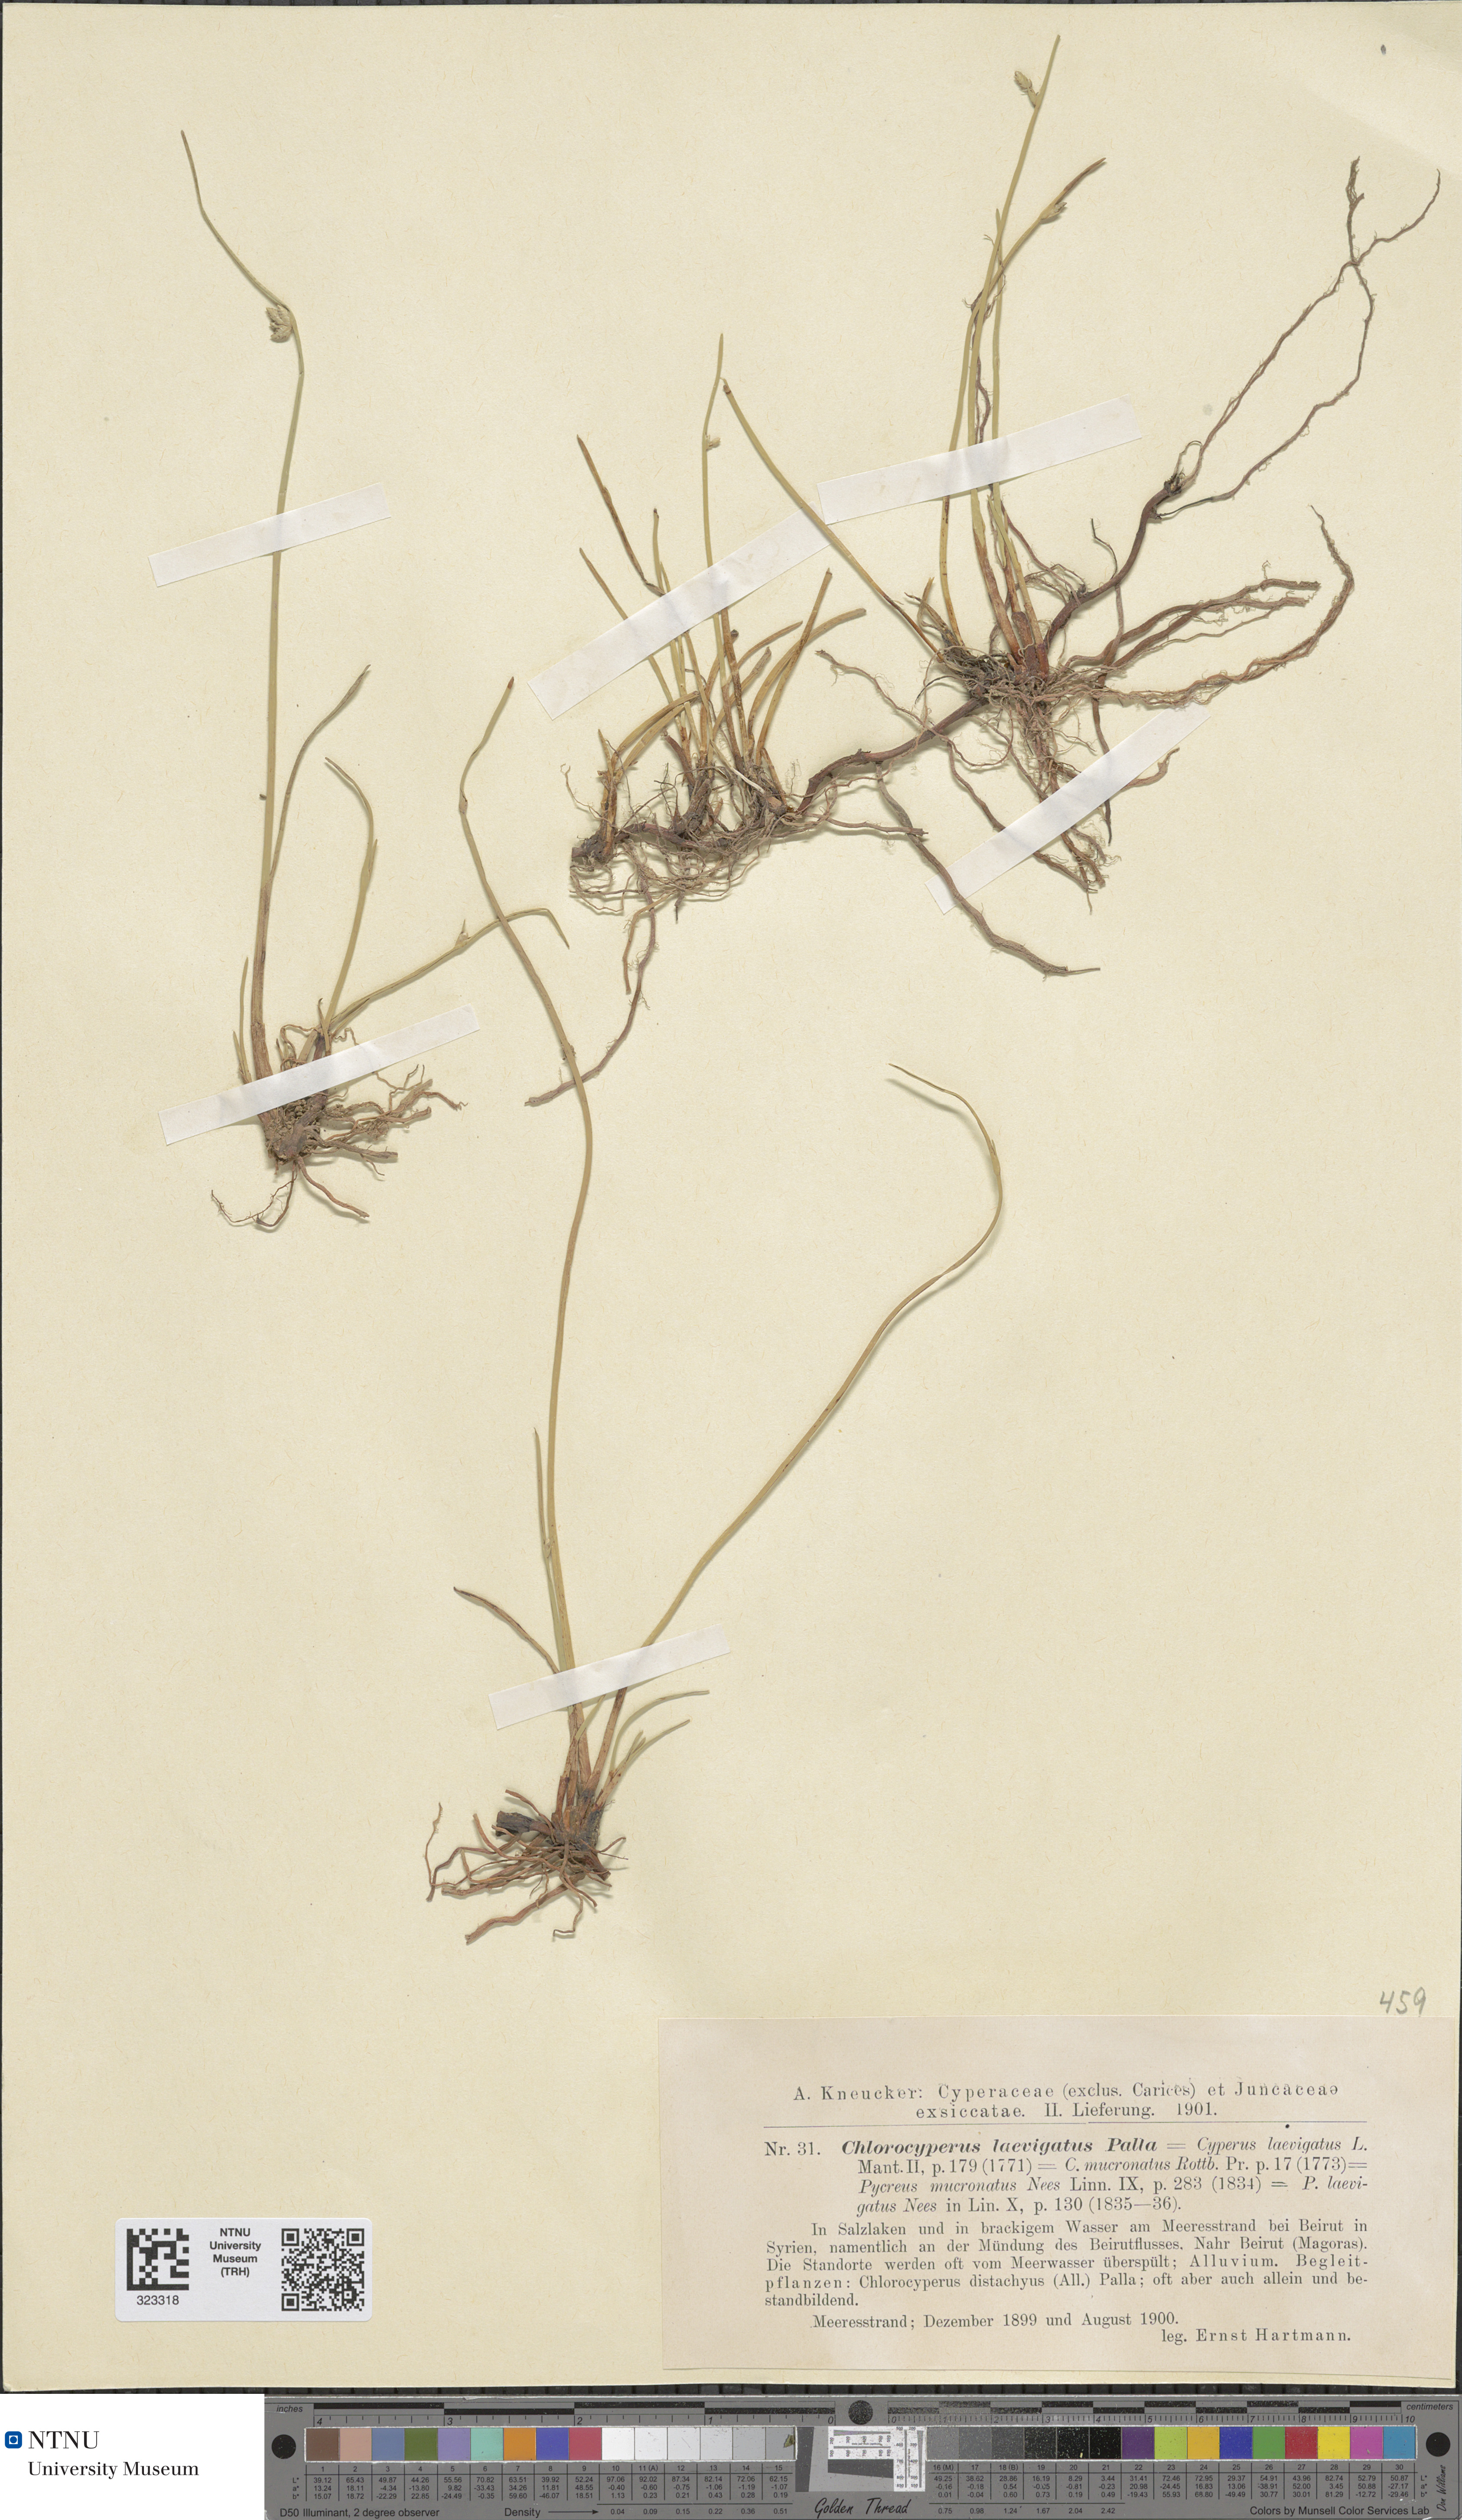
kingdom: Plantae
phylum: Tracheophyta
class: Liliopsida
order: Poales
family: Cyperaceae
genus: Cyperus
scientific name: Cyperus laevigatus
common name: Smooth flat sedge
